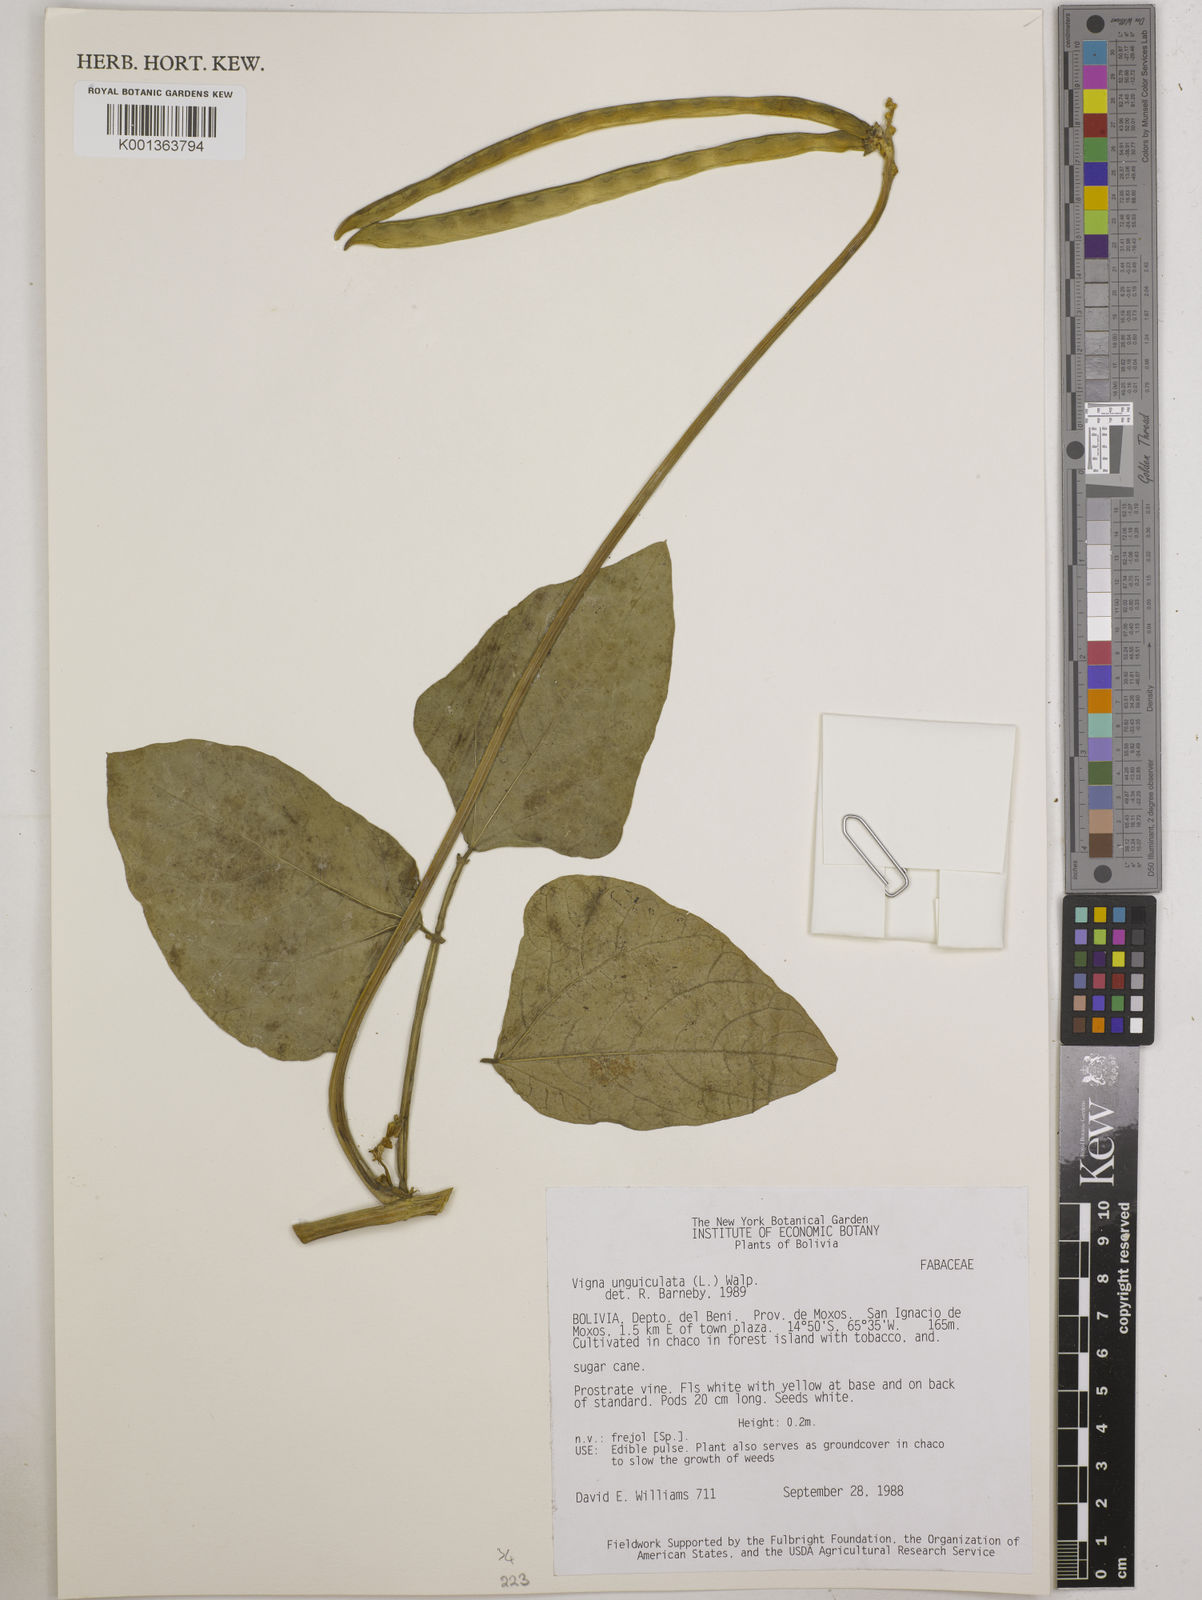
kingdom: Plantae
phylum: Tracheophyta
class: Magnoliopsida
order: Fabales
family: Fabaceae
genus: Vigna
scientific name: Vigna unguiculata
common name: Cowpea
